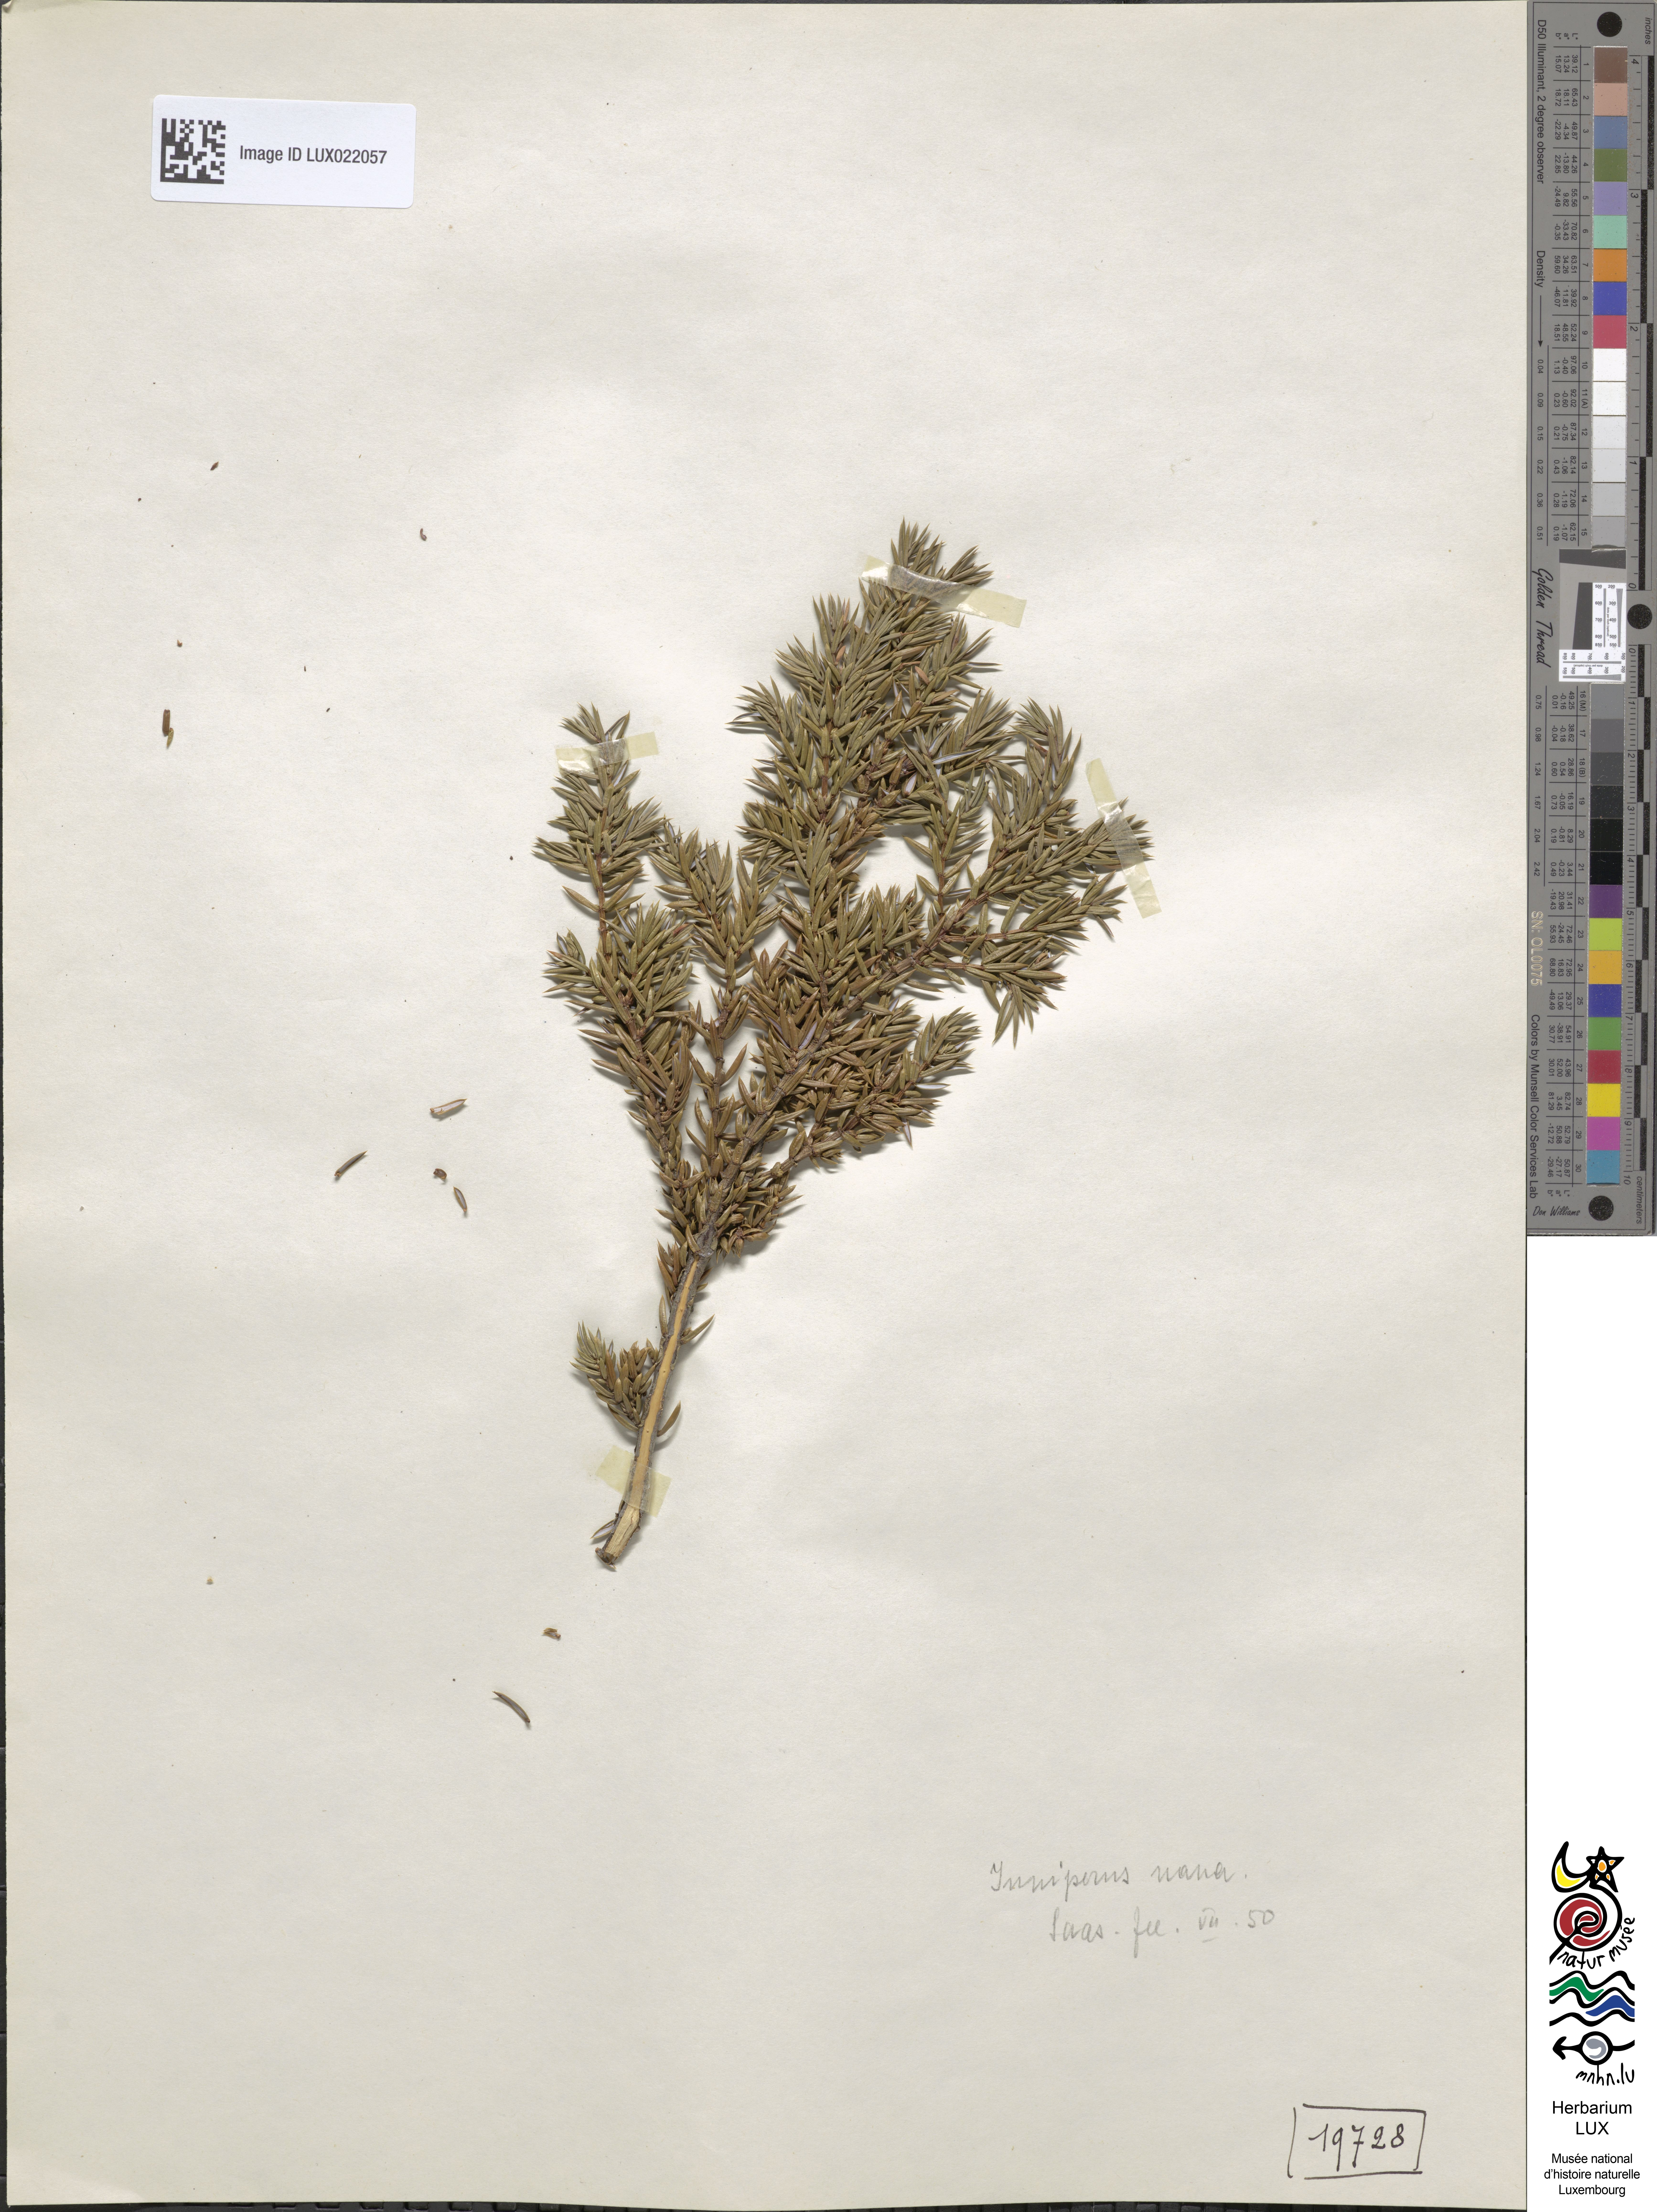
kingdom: Plantae
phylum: Tracheophyta
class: Pinopsida
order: Pinales
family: Cupressaceae
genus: Juniperus
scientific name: Juniperus communis
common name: Common juniper
